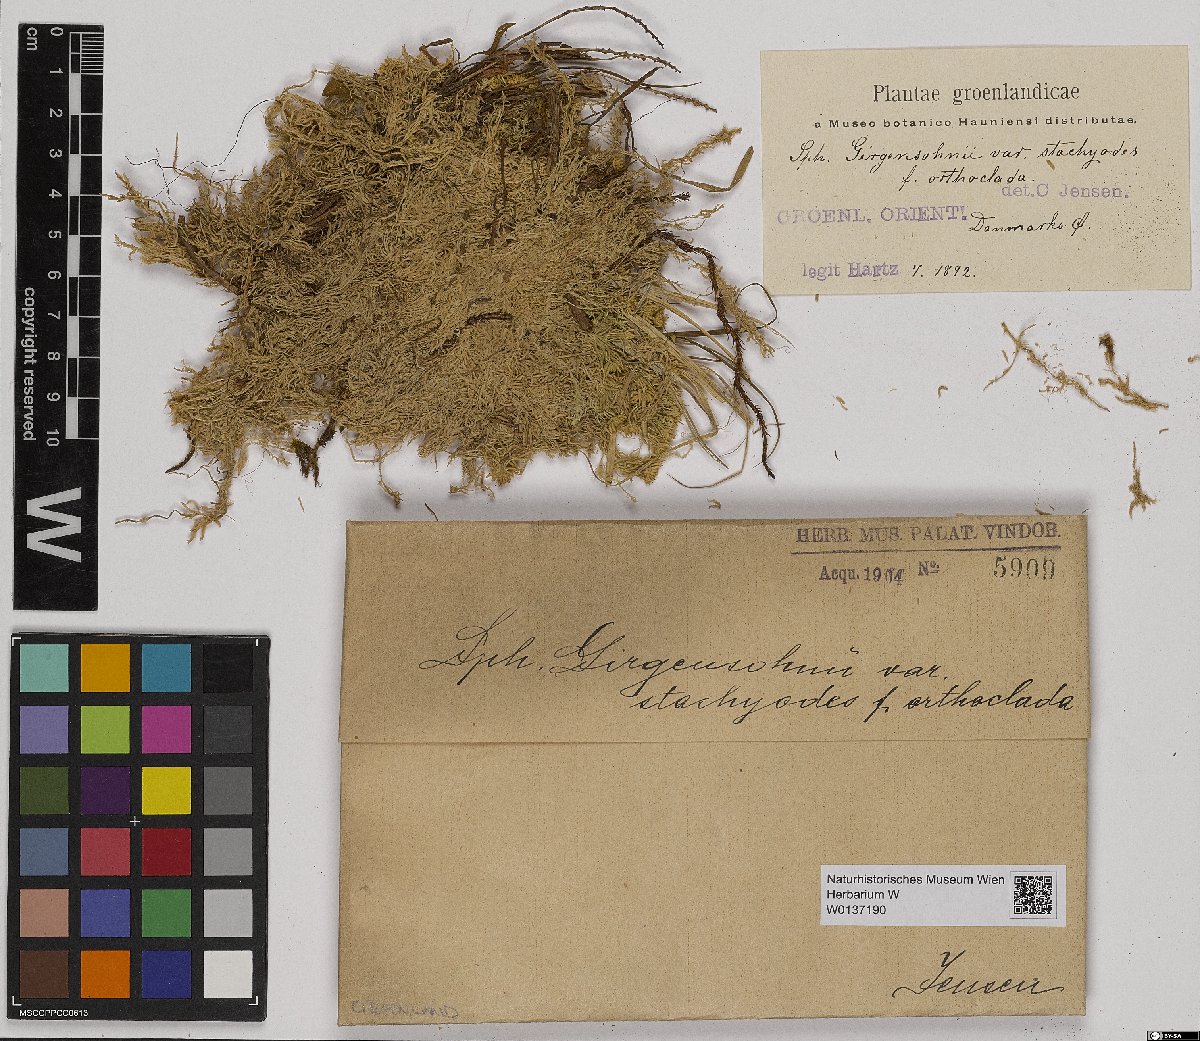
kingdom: Plantae
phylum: Bryophyta
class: Sphagnopsida
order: Sphagnales
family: Sphagnaceae
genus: Sphagnum
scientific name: Sphagnum girgensohnii
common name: Girgensohn's peat moss
